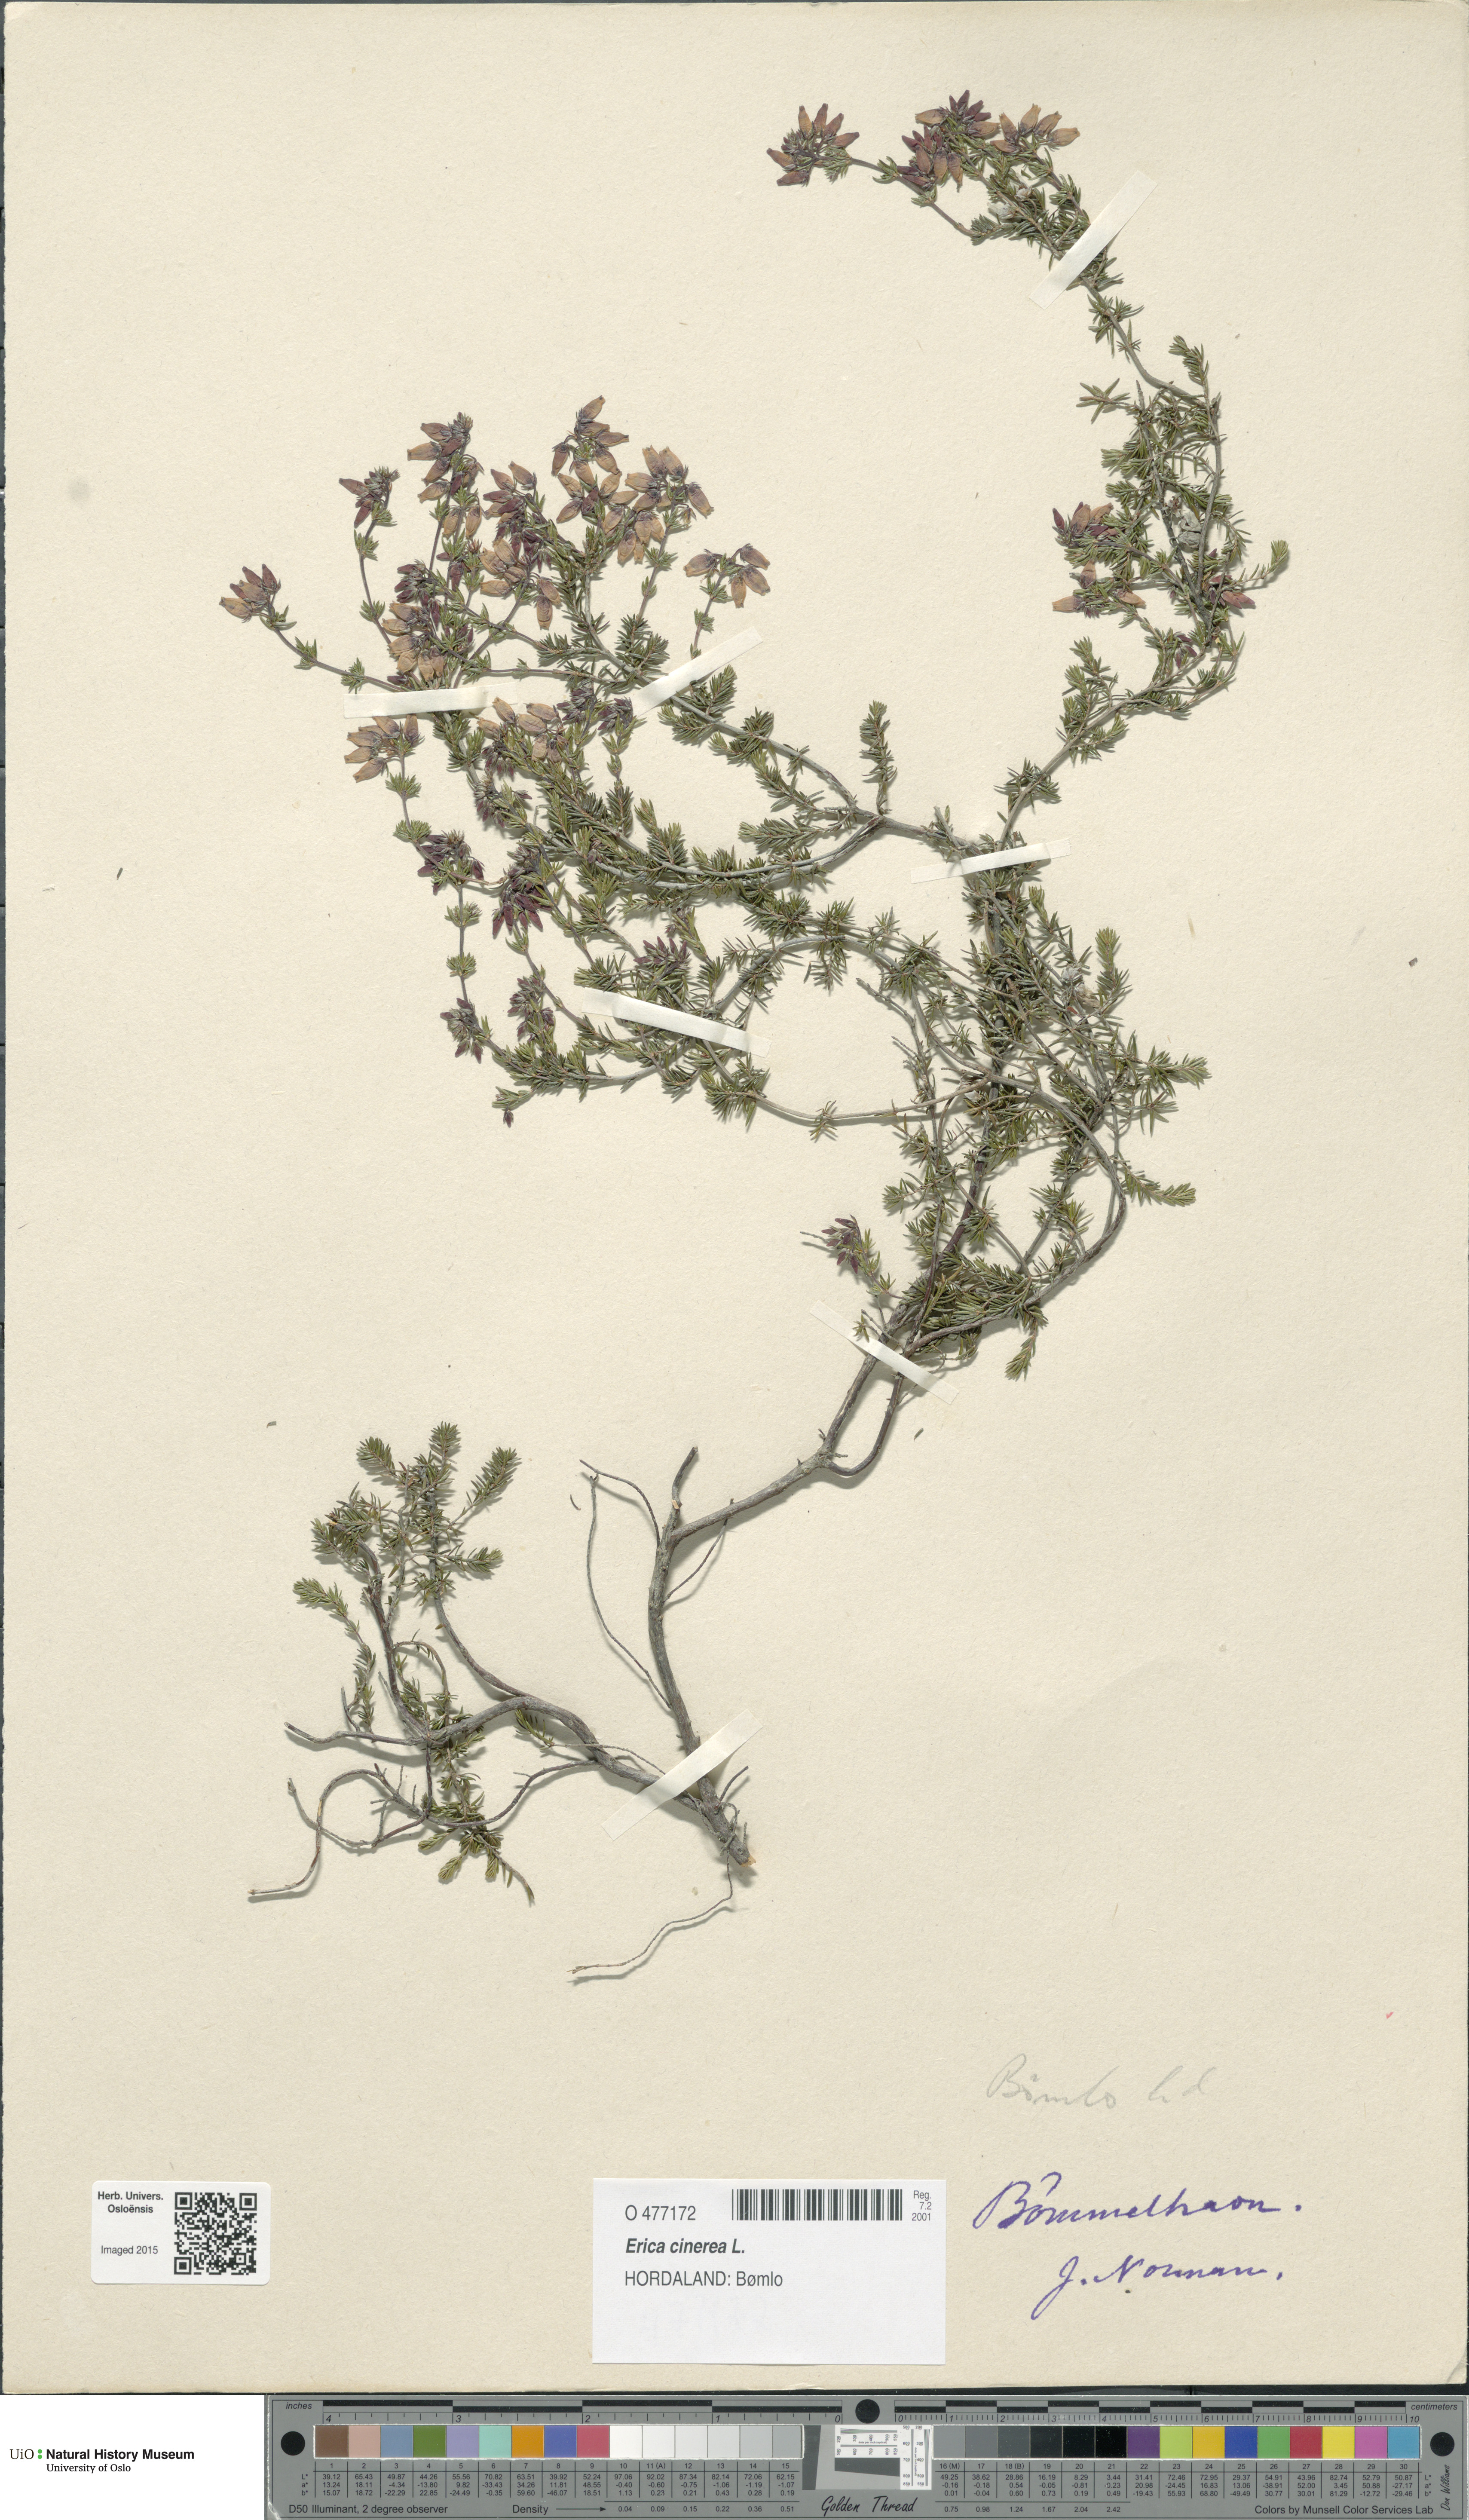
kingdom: Plantae
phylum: Tracheophyta
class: Magnoliopsida
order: Ericales
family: Ericaceae
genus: Erica
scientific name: Erica cinerea
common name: Bell heather
